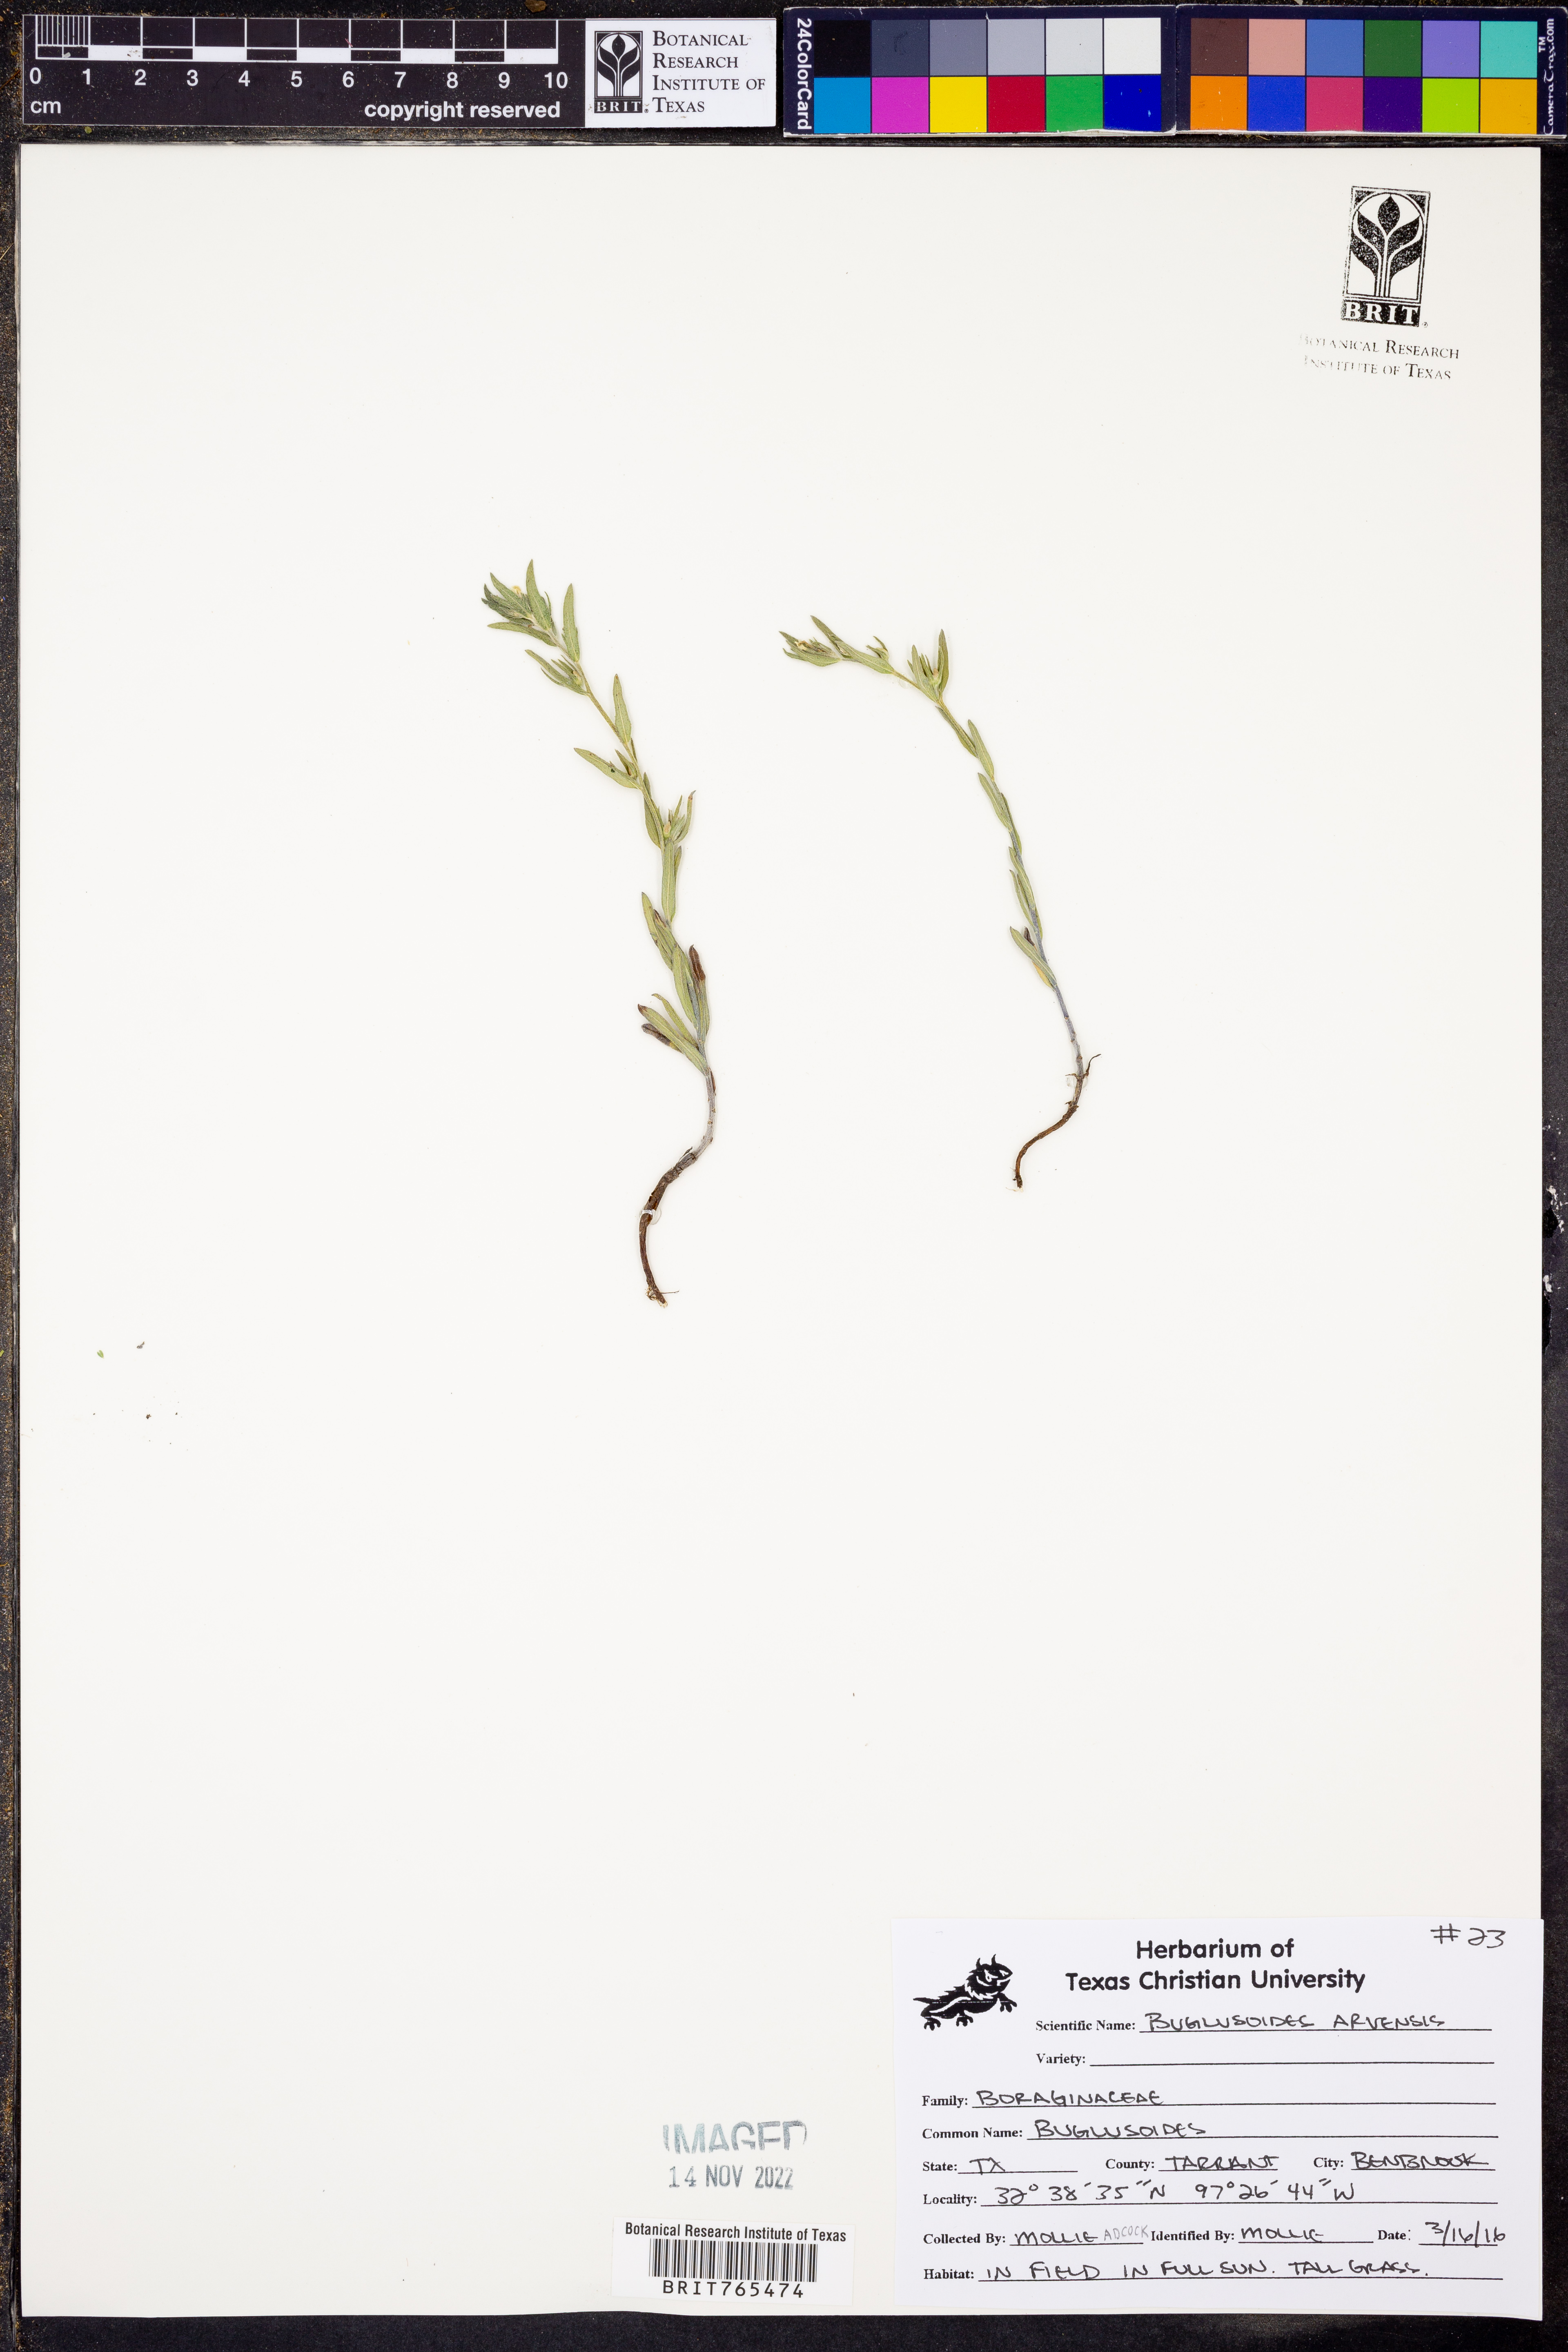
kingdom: Plantae
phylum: Tracheophyta
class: Magnoliopsida
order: Boraginales
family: Boraginaceae
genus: Buglossoides
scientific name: Buglossoides arvensis
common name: Corn gromwell
